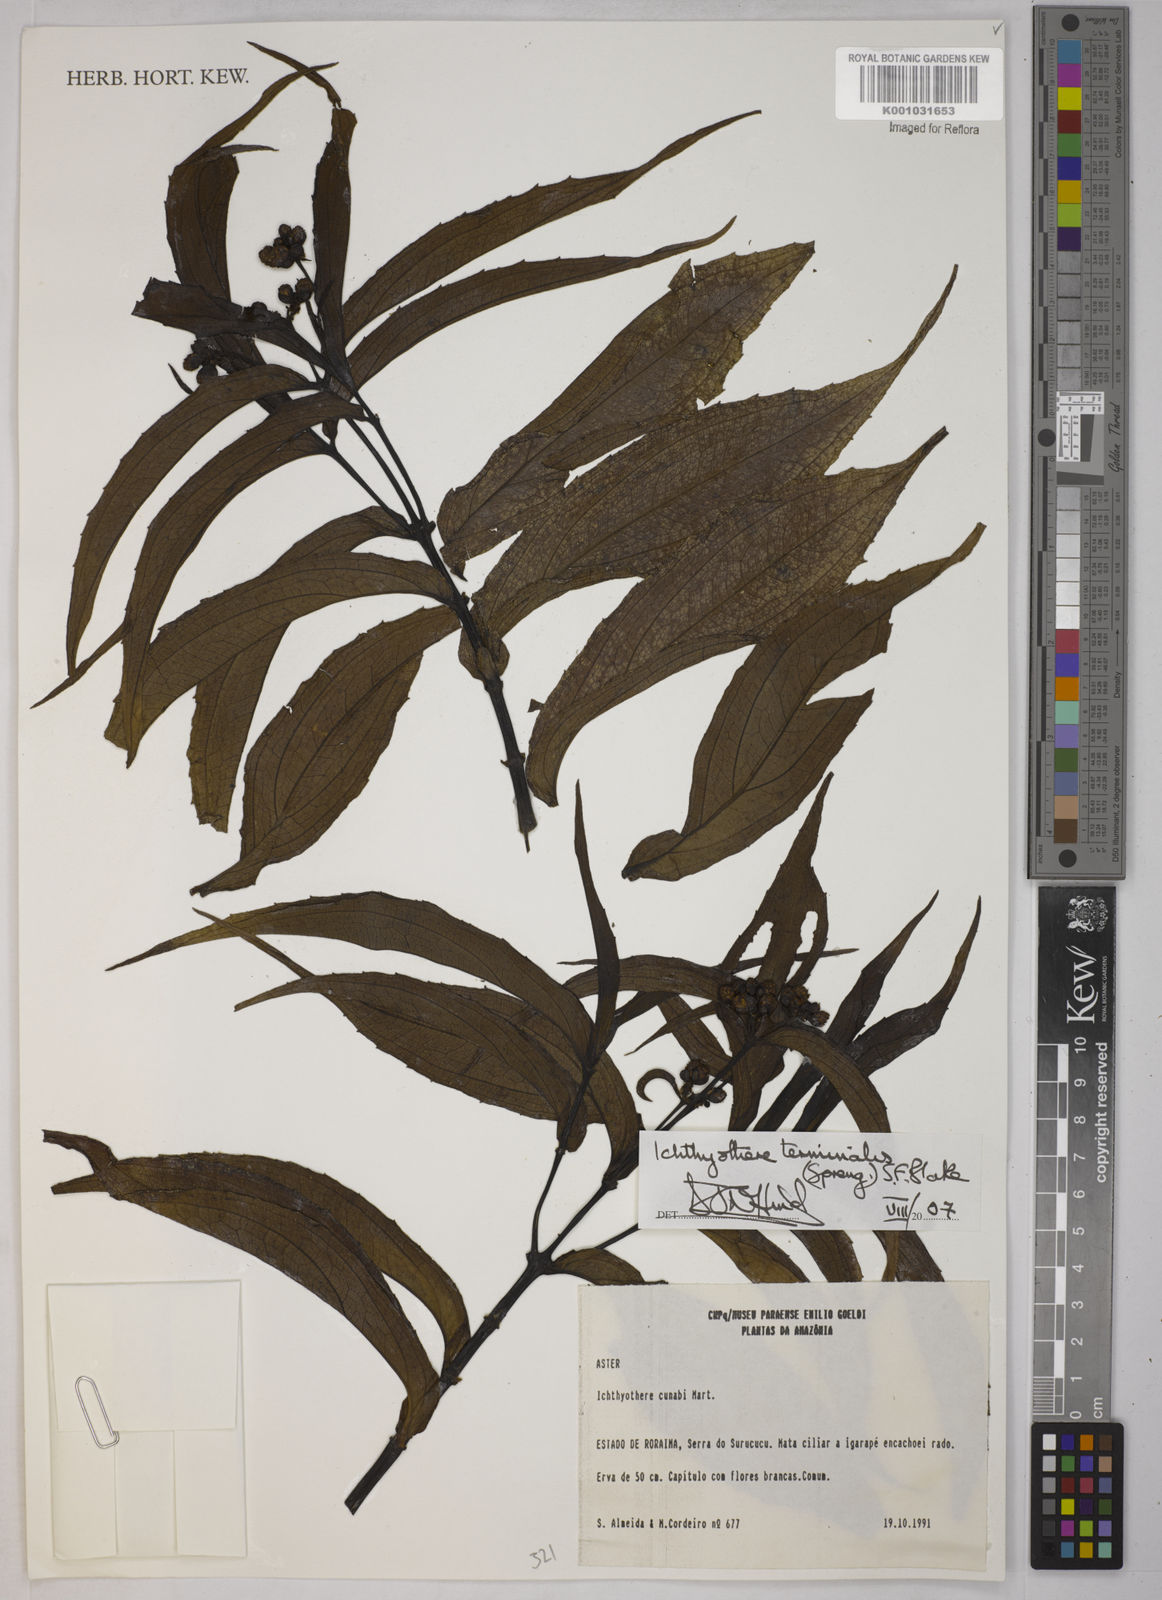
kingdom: Plantae
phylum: Tracheophyta
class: Magnoliopsida
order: Asterales
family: Asteraceae
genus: Ichthyothere
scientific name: Ichthyothere terminalis
